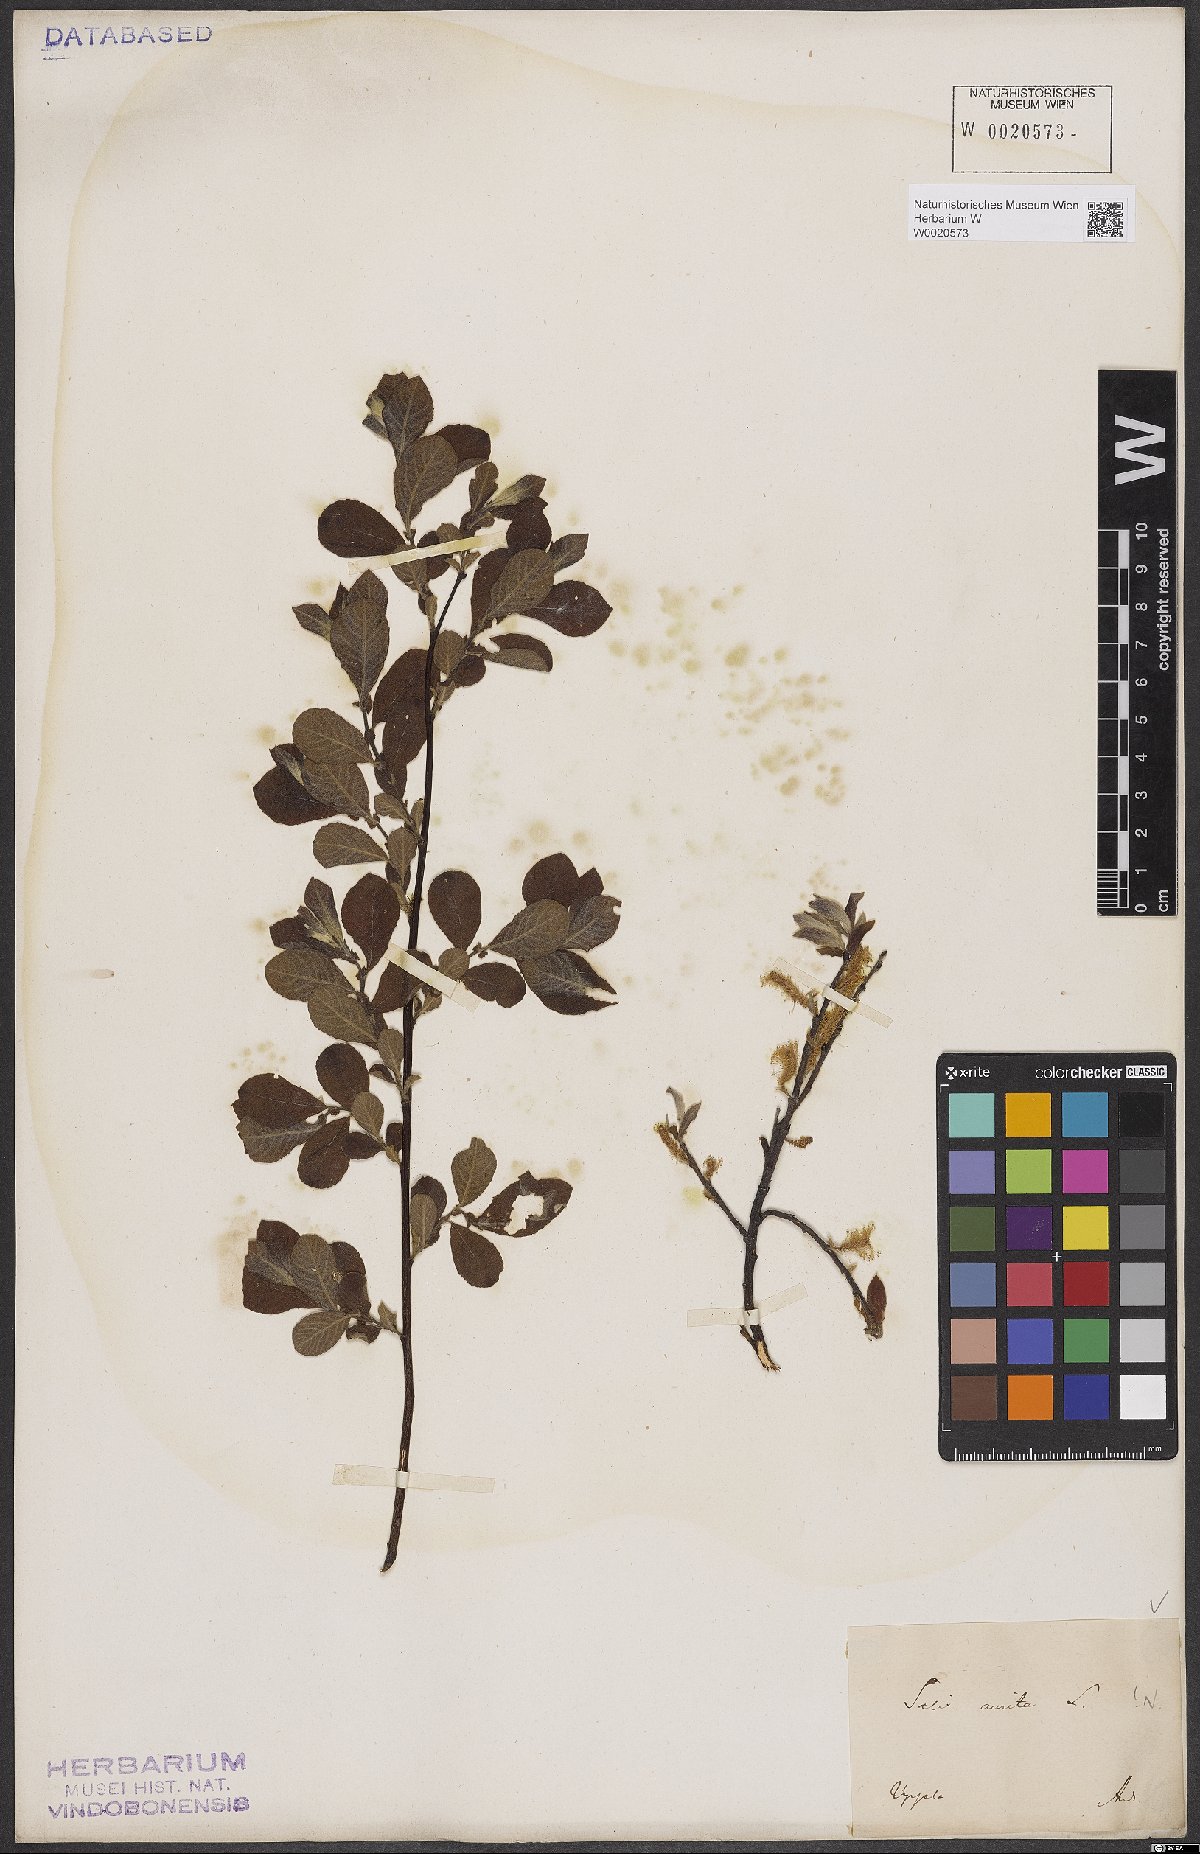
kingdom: Plantae
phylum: Tracheophyta
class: Magnoliopsida
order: Malpighiales
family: Salicaceae
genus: Salix
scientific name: Salix aurita
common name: Eared willow
